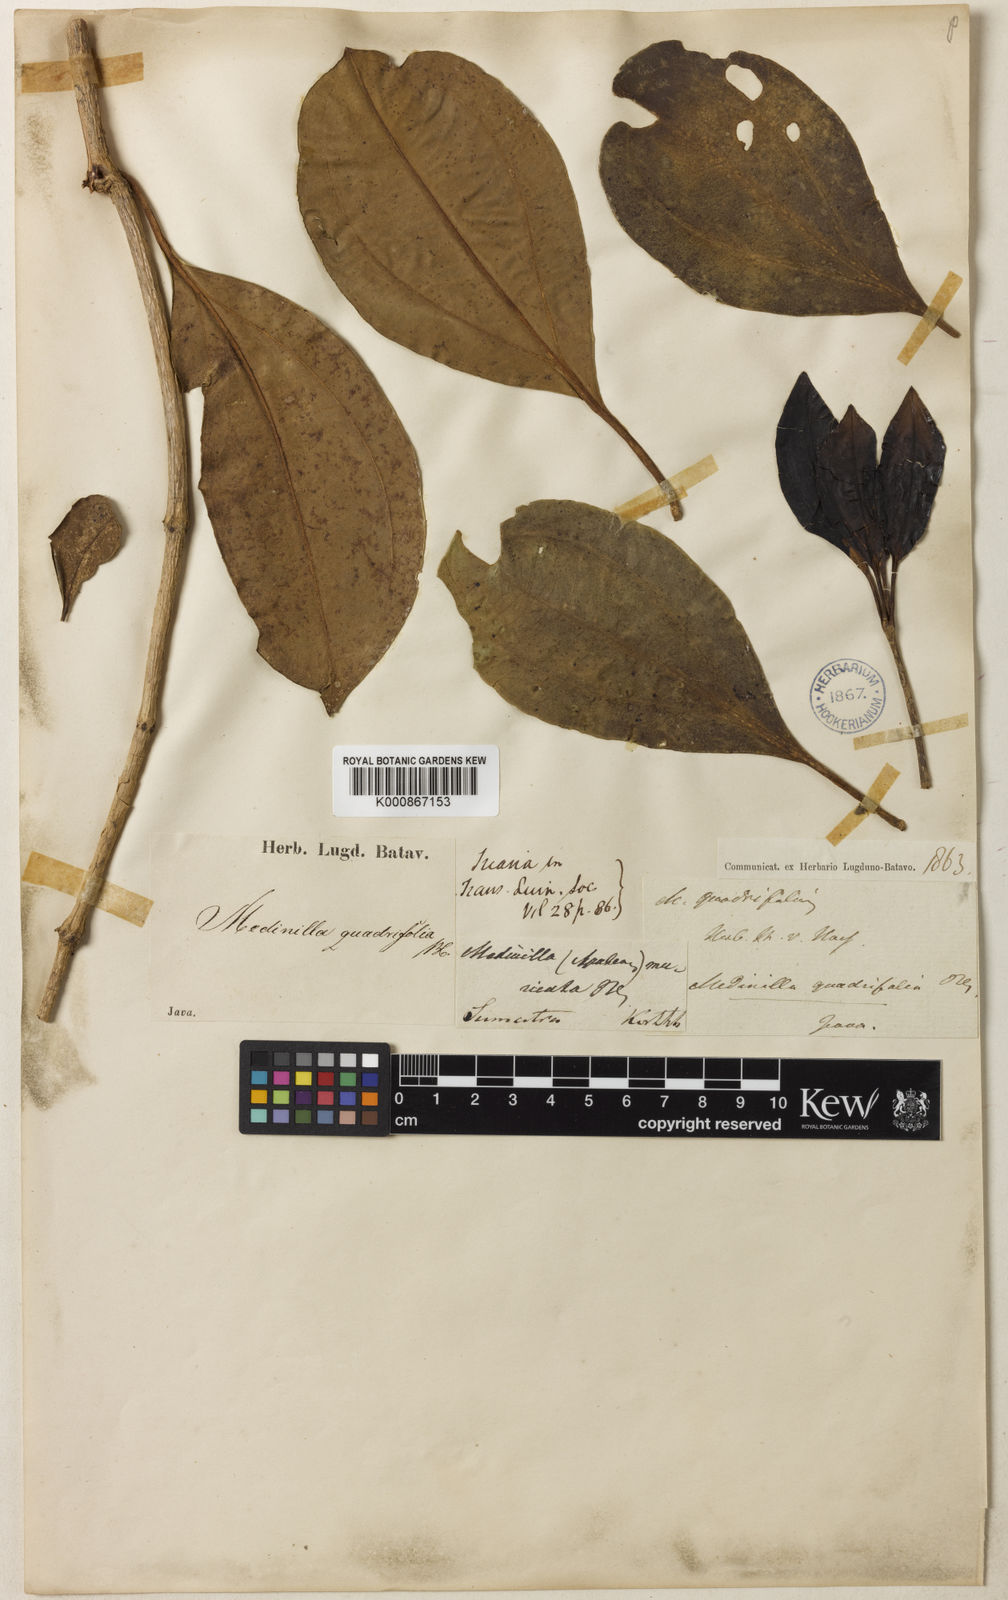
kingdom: Plantae
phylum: Tracheophyta
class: Magnoliopsida
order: Myrtales
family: Melastomataceae
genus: Medinilla
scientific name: Medinilla quadrifolia
